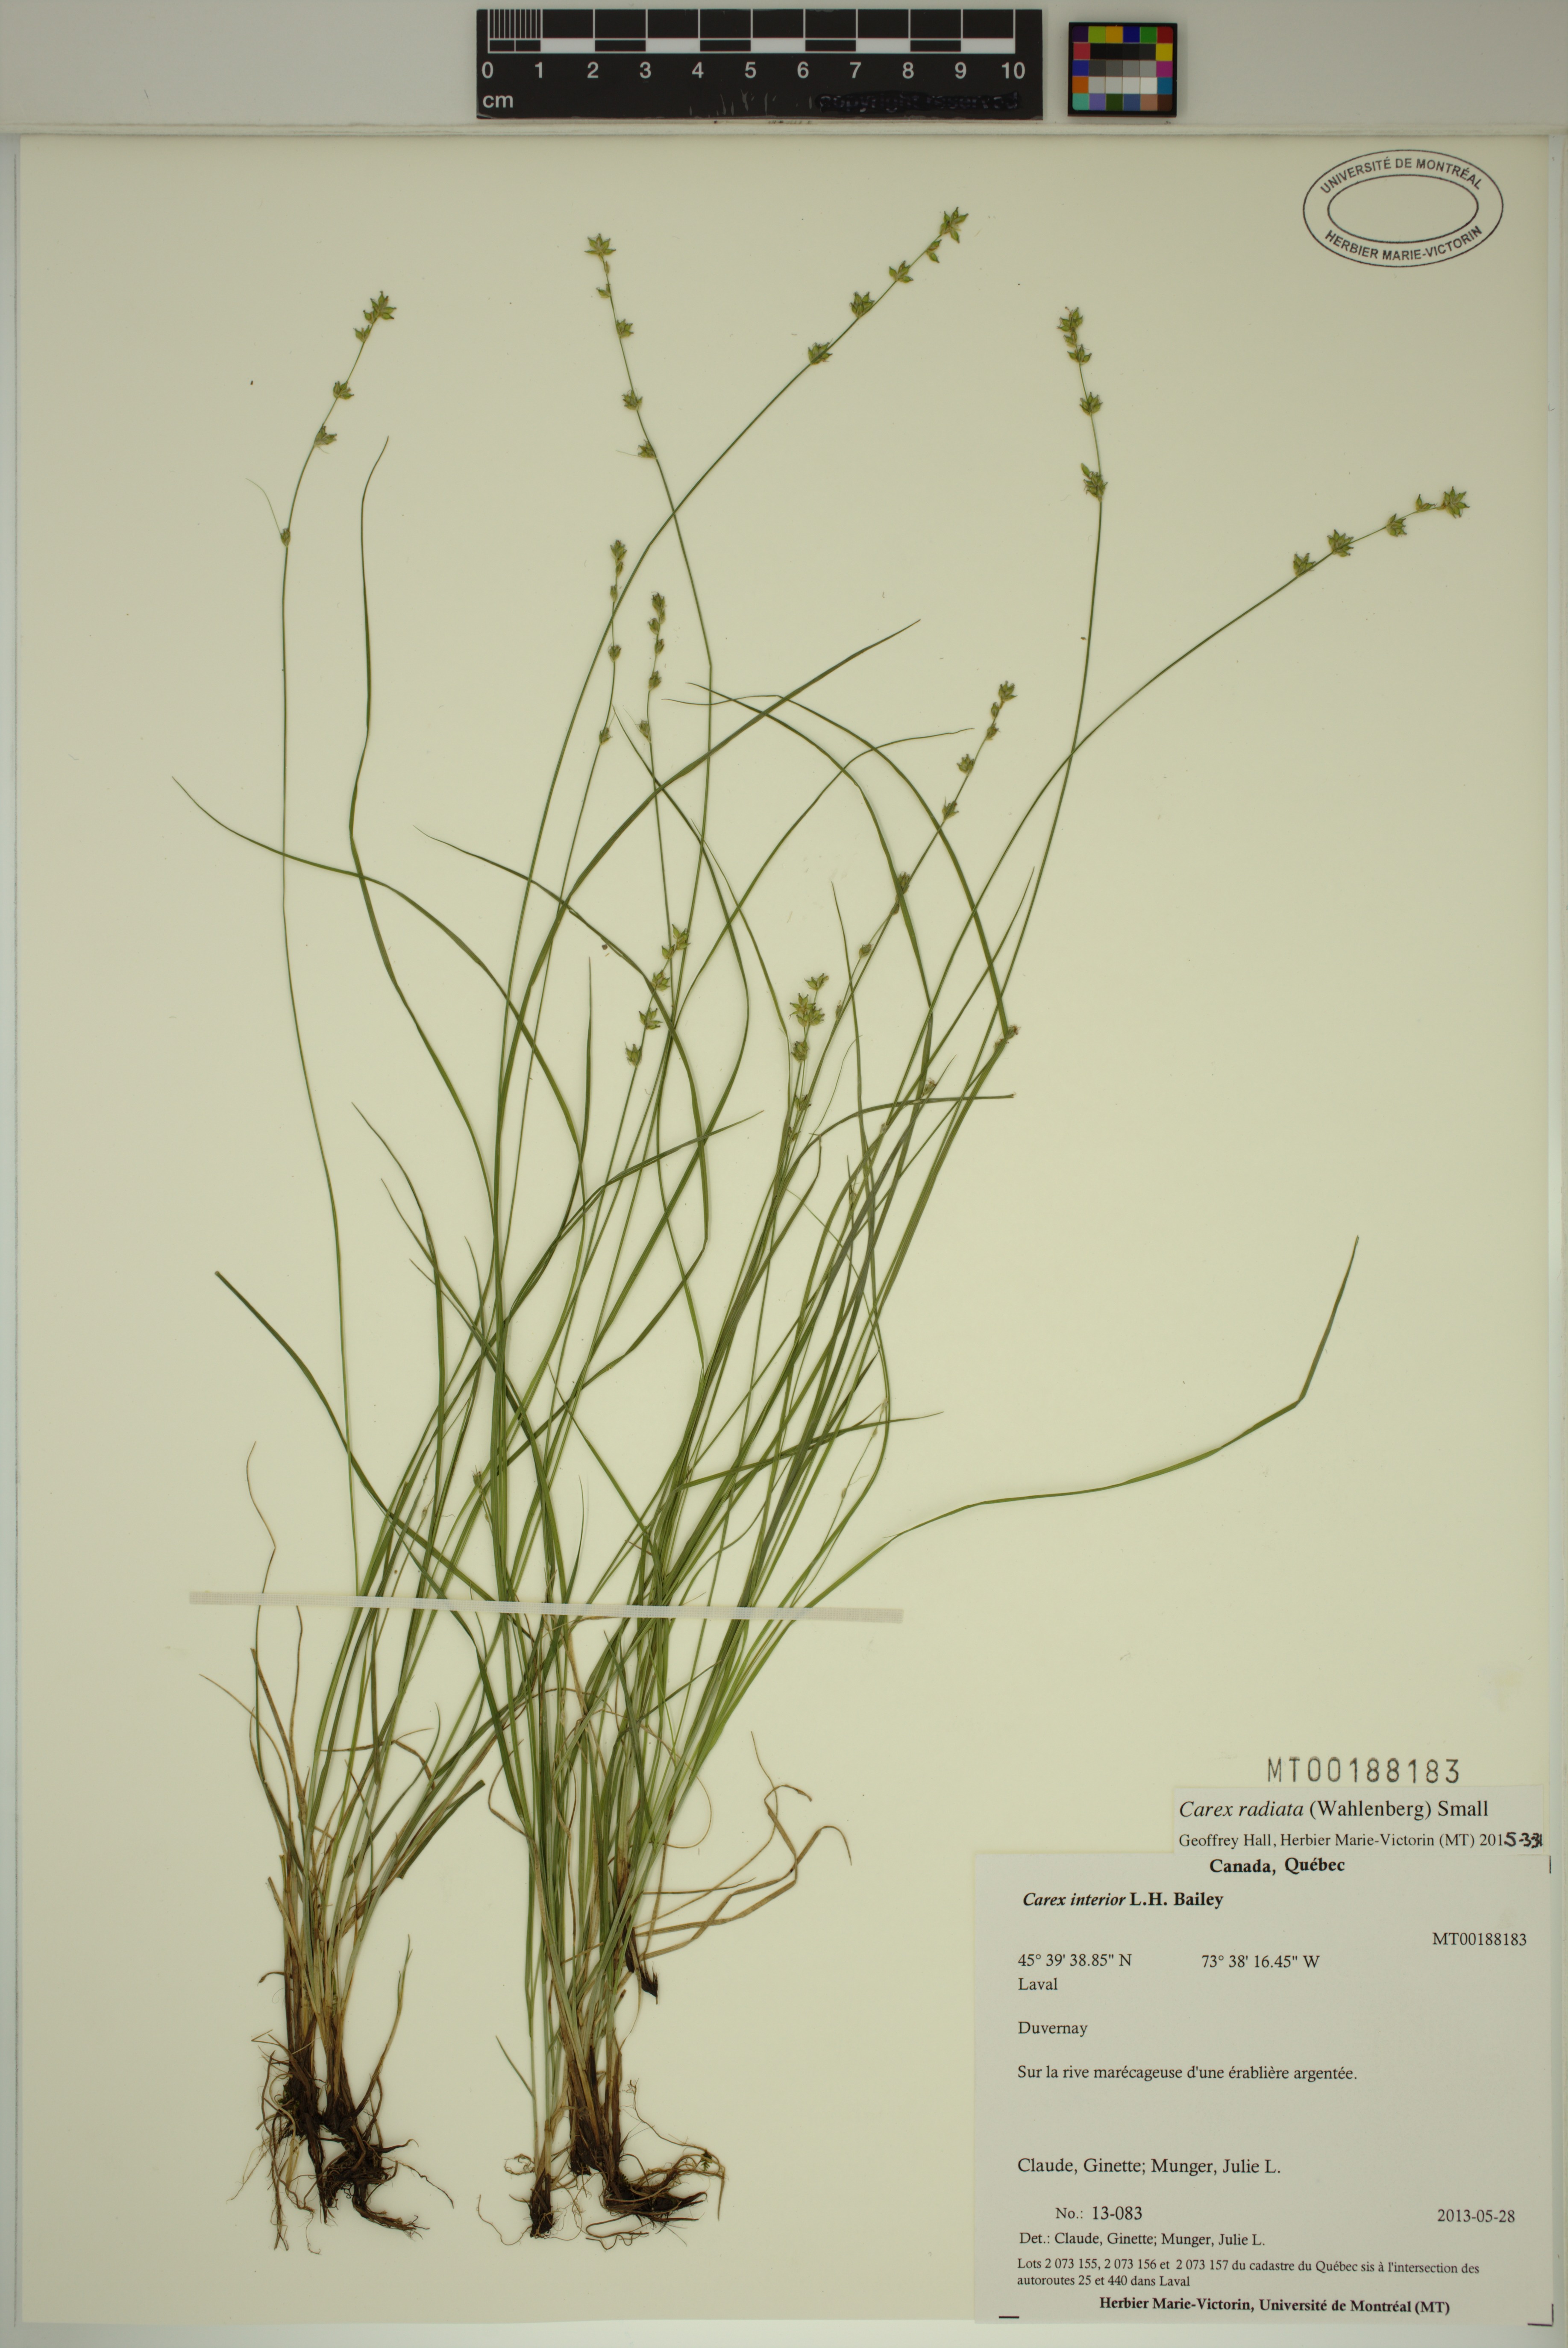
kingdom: Plantae
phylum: Tracheophyta
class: Liliopsida
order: Poales
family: Cyperaceae
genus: Carex
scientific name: Carex radiata
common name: Eastern star sedge
